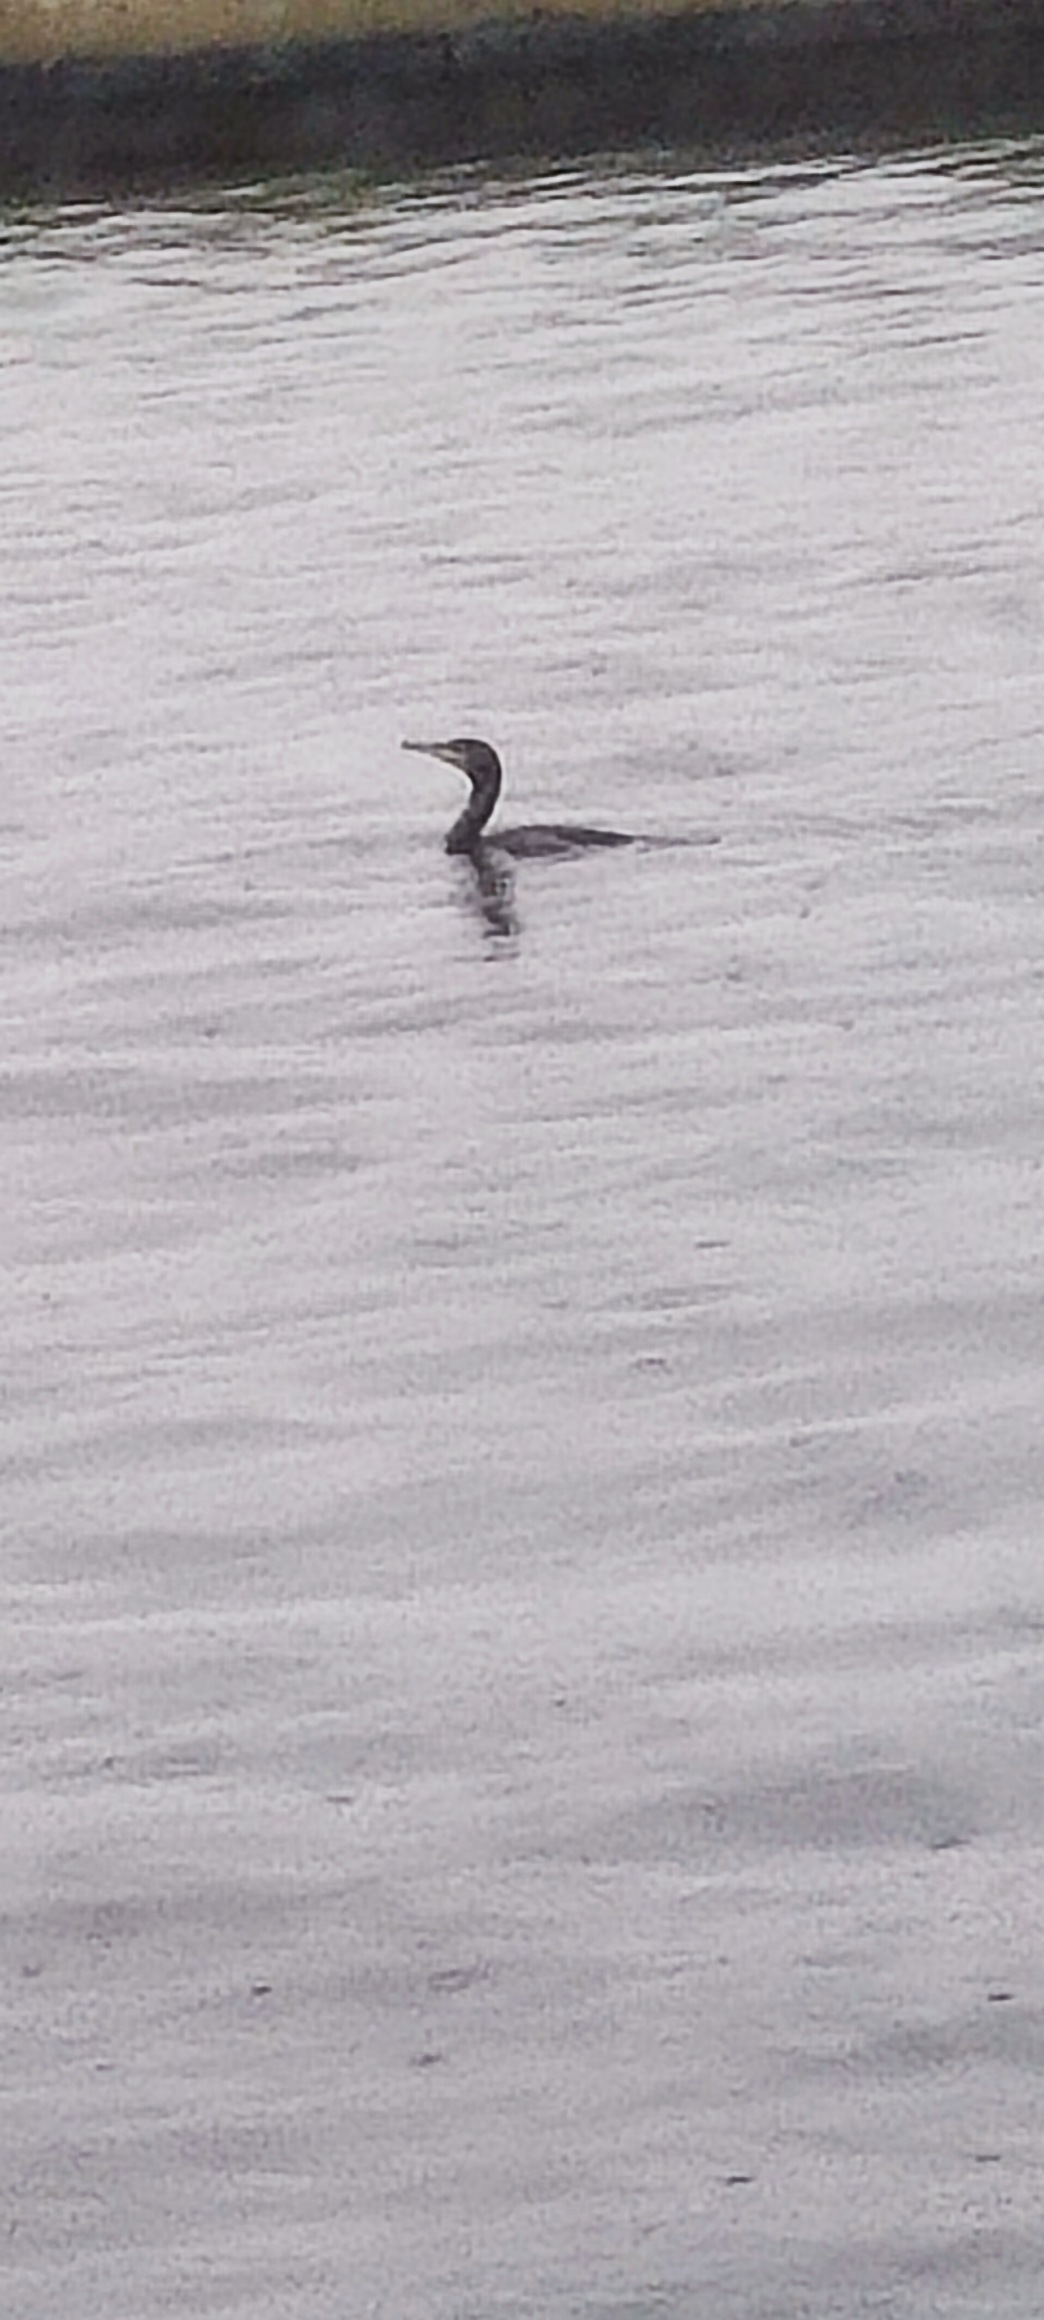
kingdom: Animalia
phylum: Chordata
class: Aves
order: Suliformes
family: Phalacrocoracidae
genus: Phalacrocorax
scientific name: Phalacrocorax carbo
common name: Skarv
